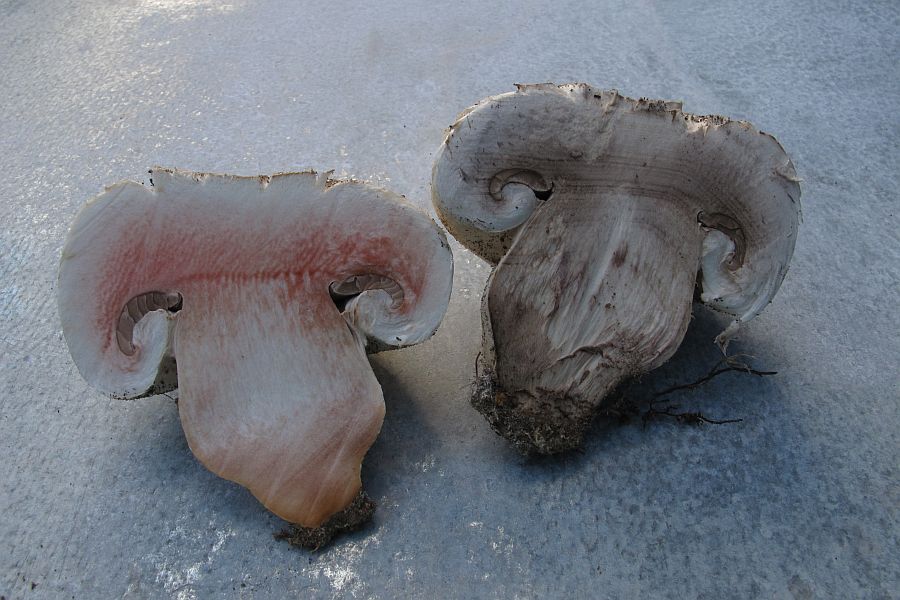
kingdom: Fungi
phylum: Basidiomycota
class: Agaricomycetes
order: Agaricales
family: Agaricaceae
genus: Agaricus
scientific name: Agaricus subfloccosus
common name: randskællet champignon
